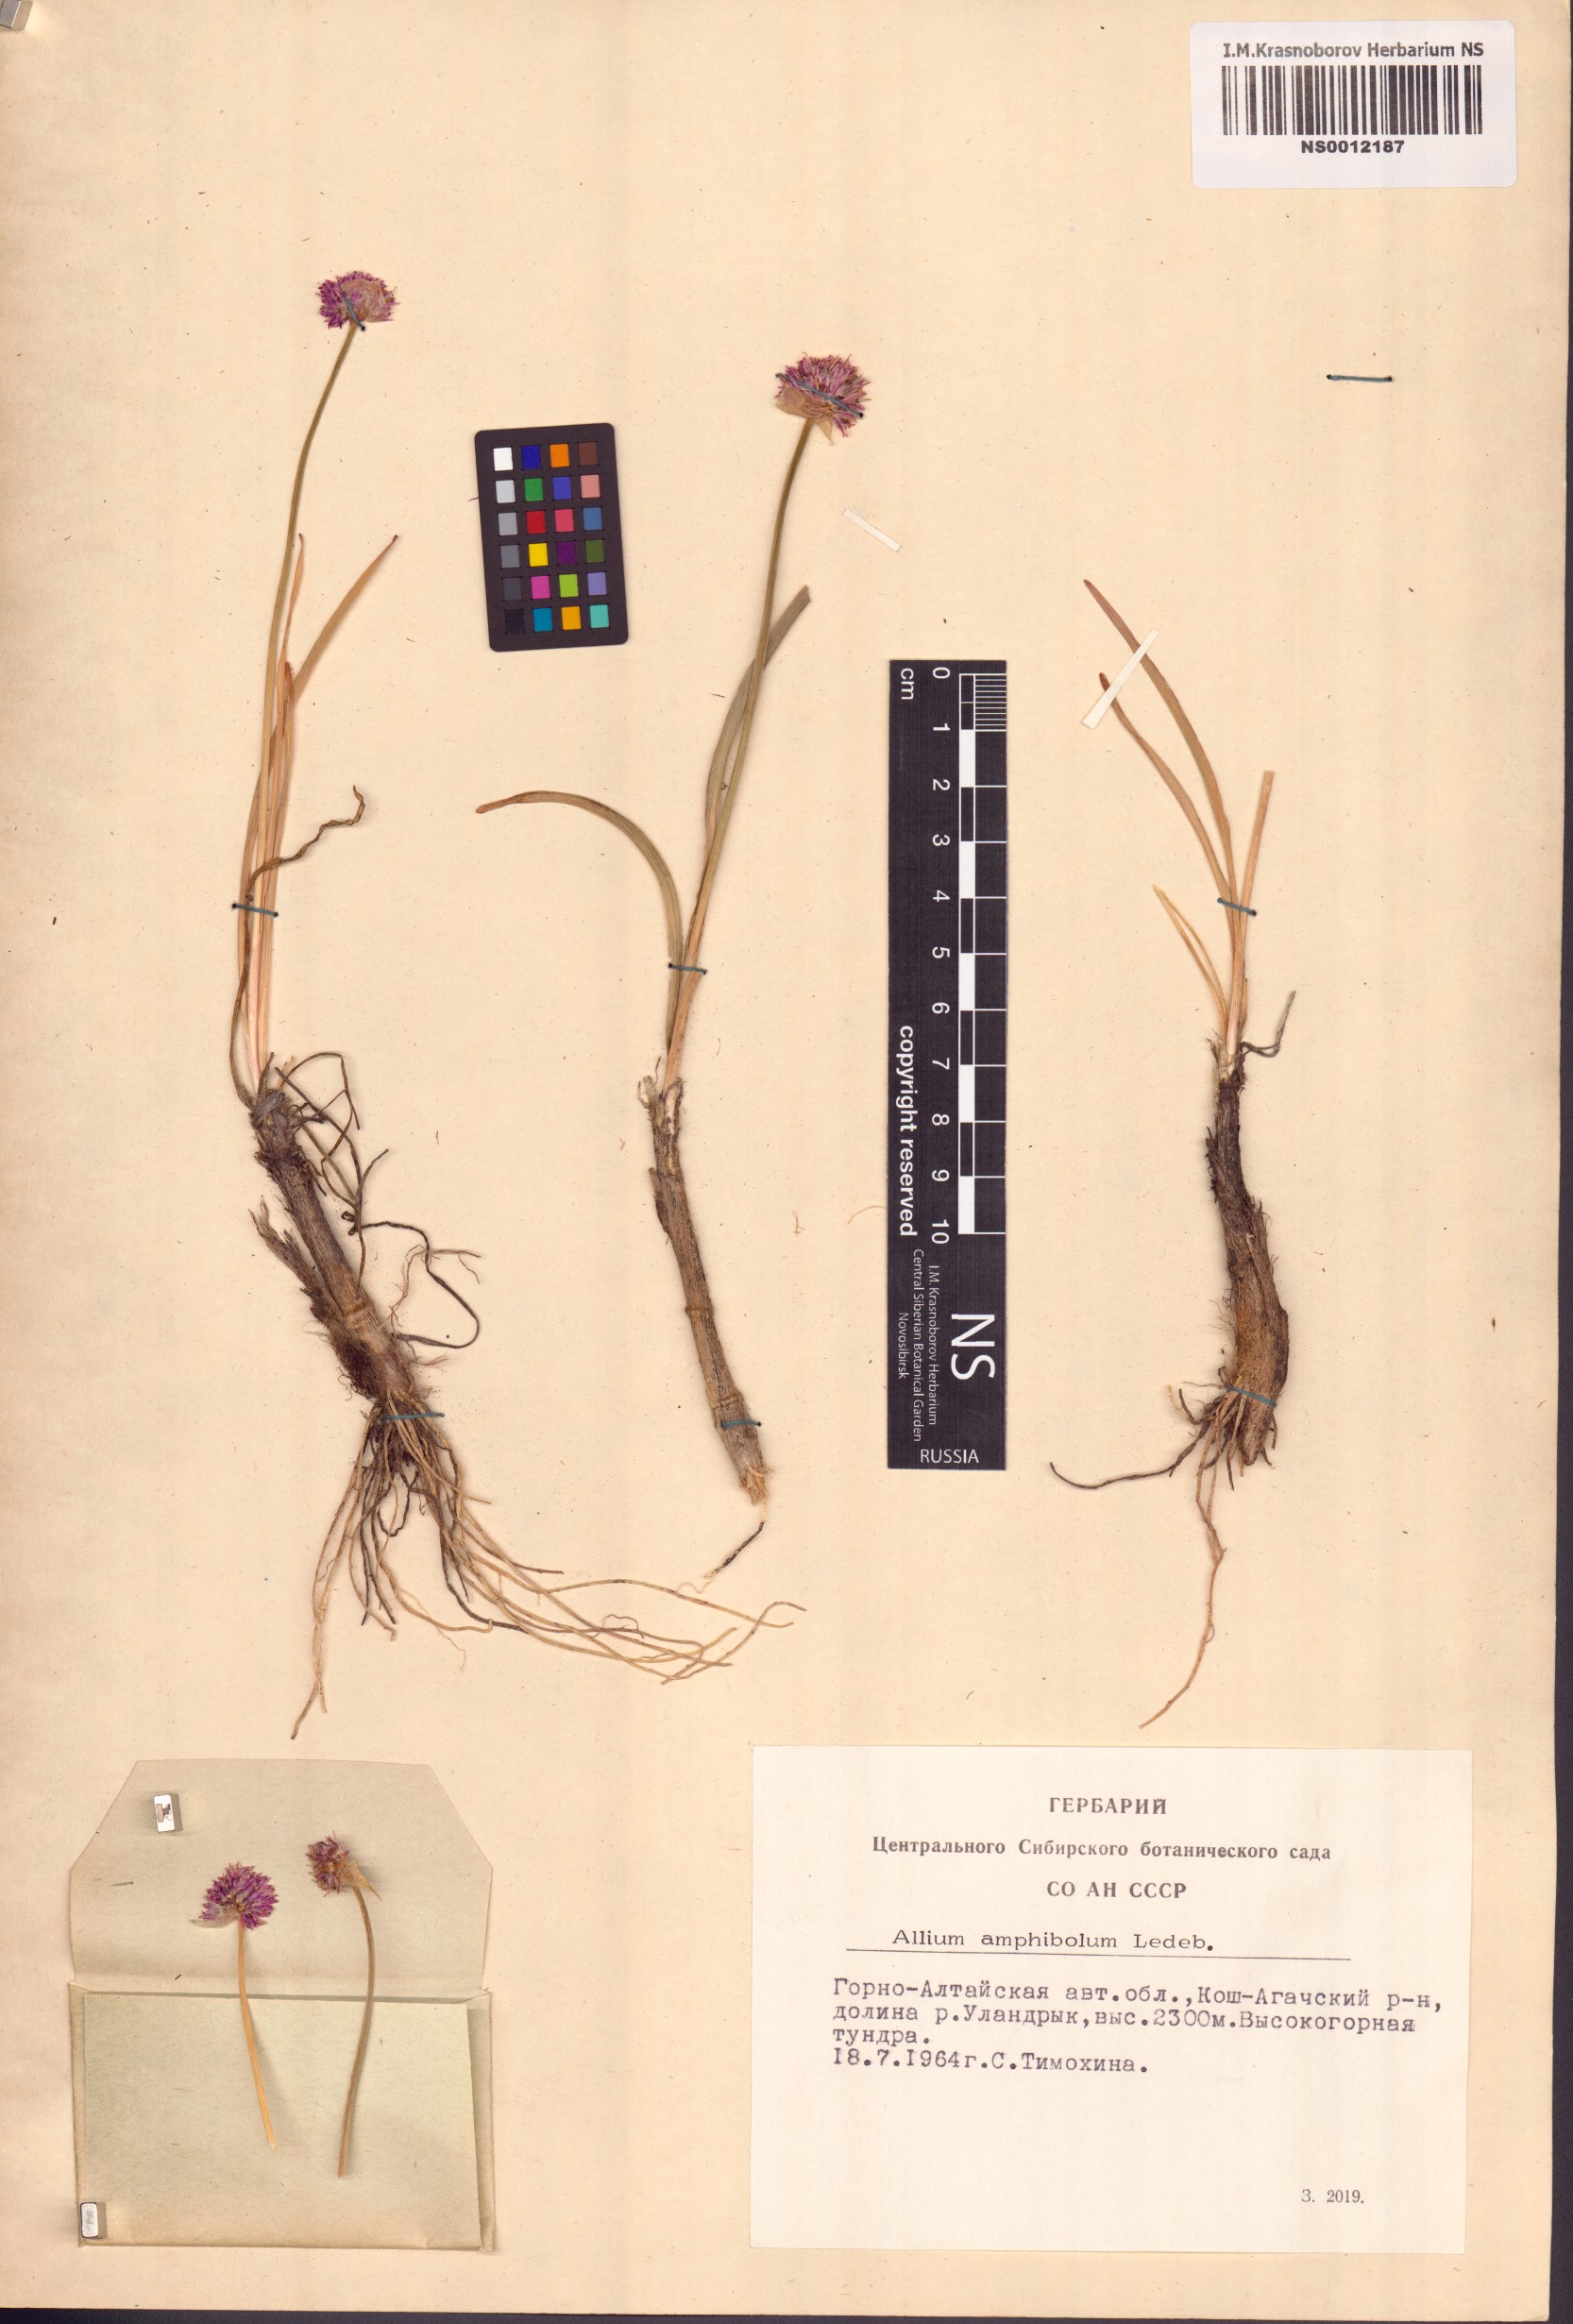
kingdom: Plantae
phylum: Tracheophyta
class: Liliopsida
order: Asparagales
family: Amaryllidaceae
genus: Allium
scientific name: Allium amphibolum
